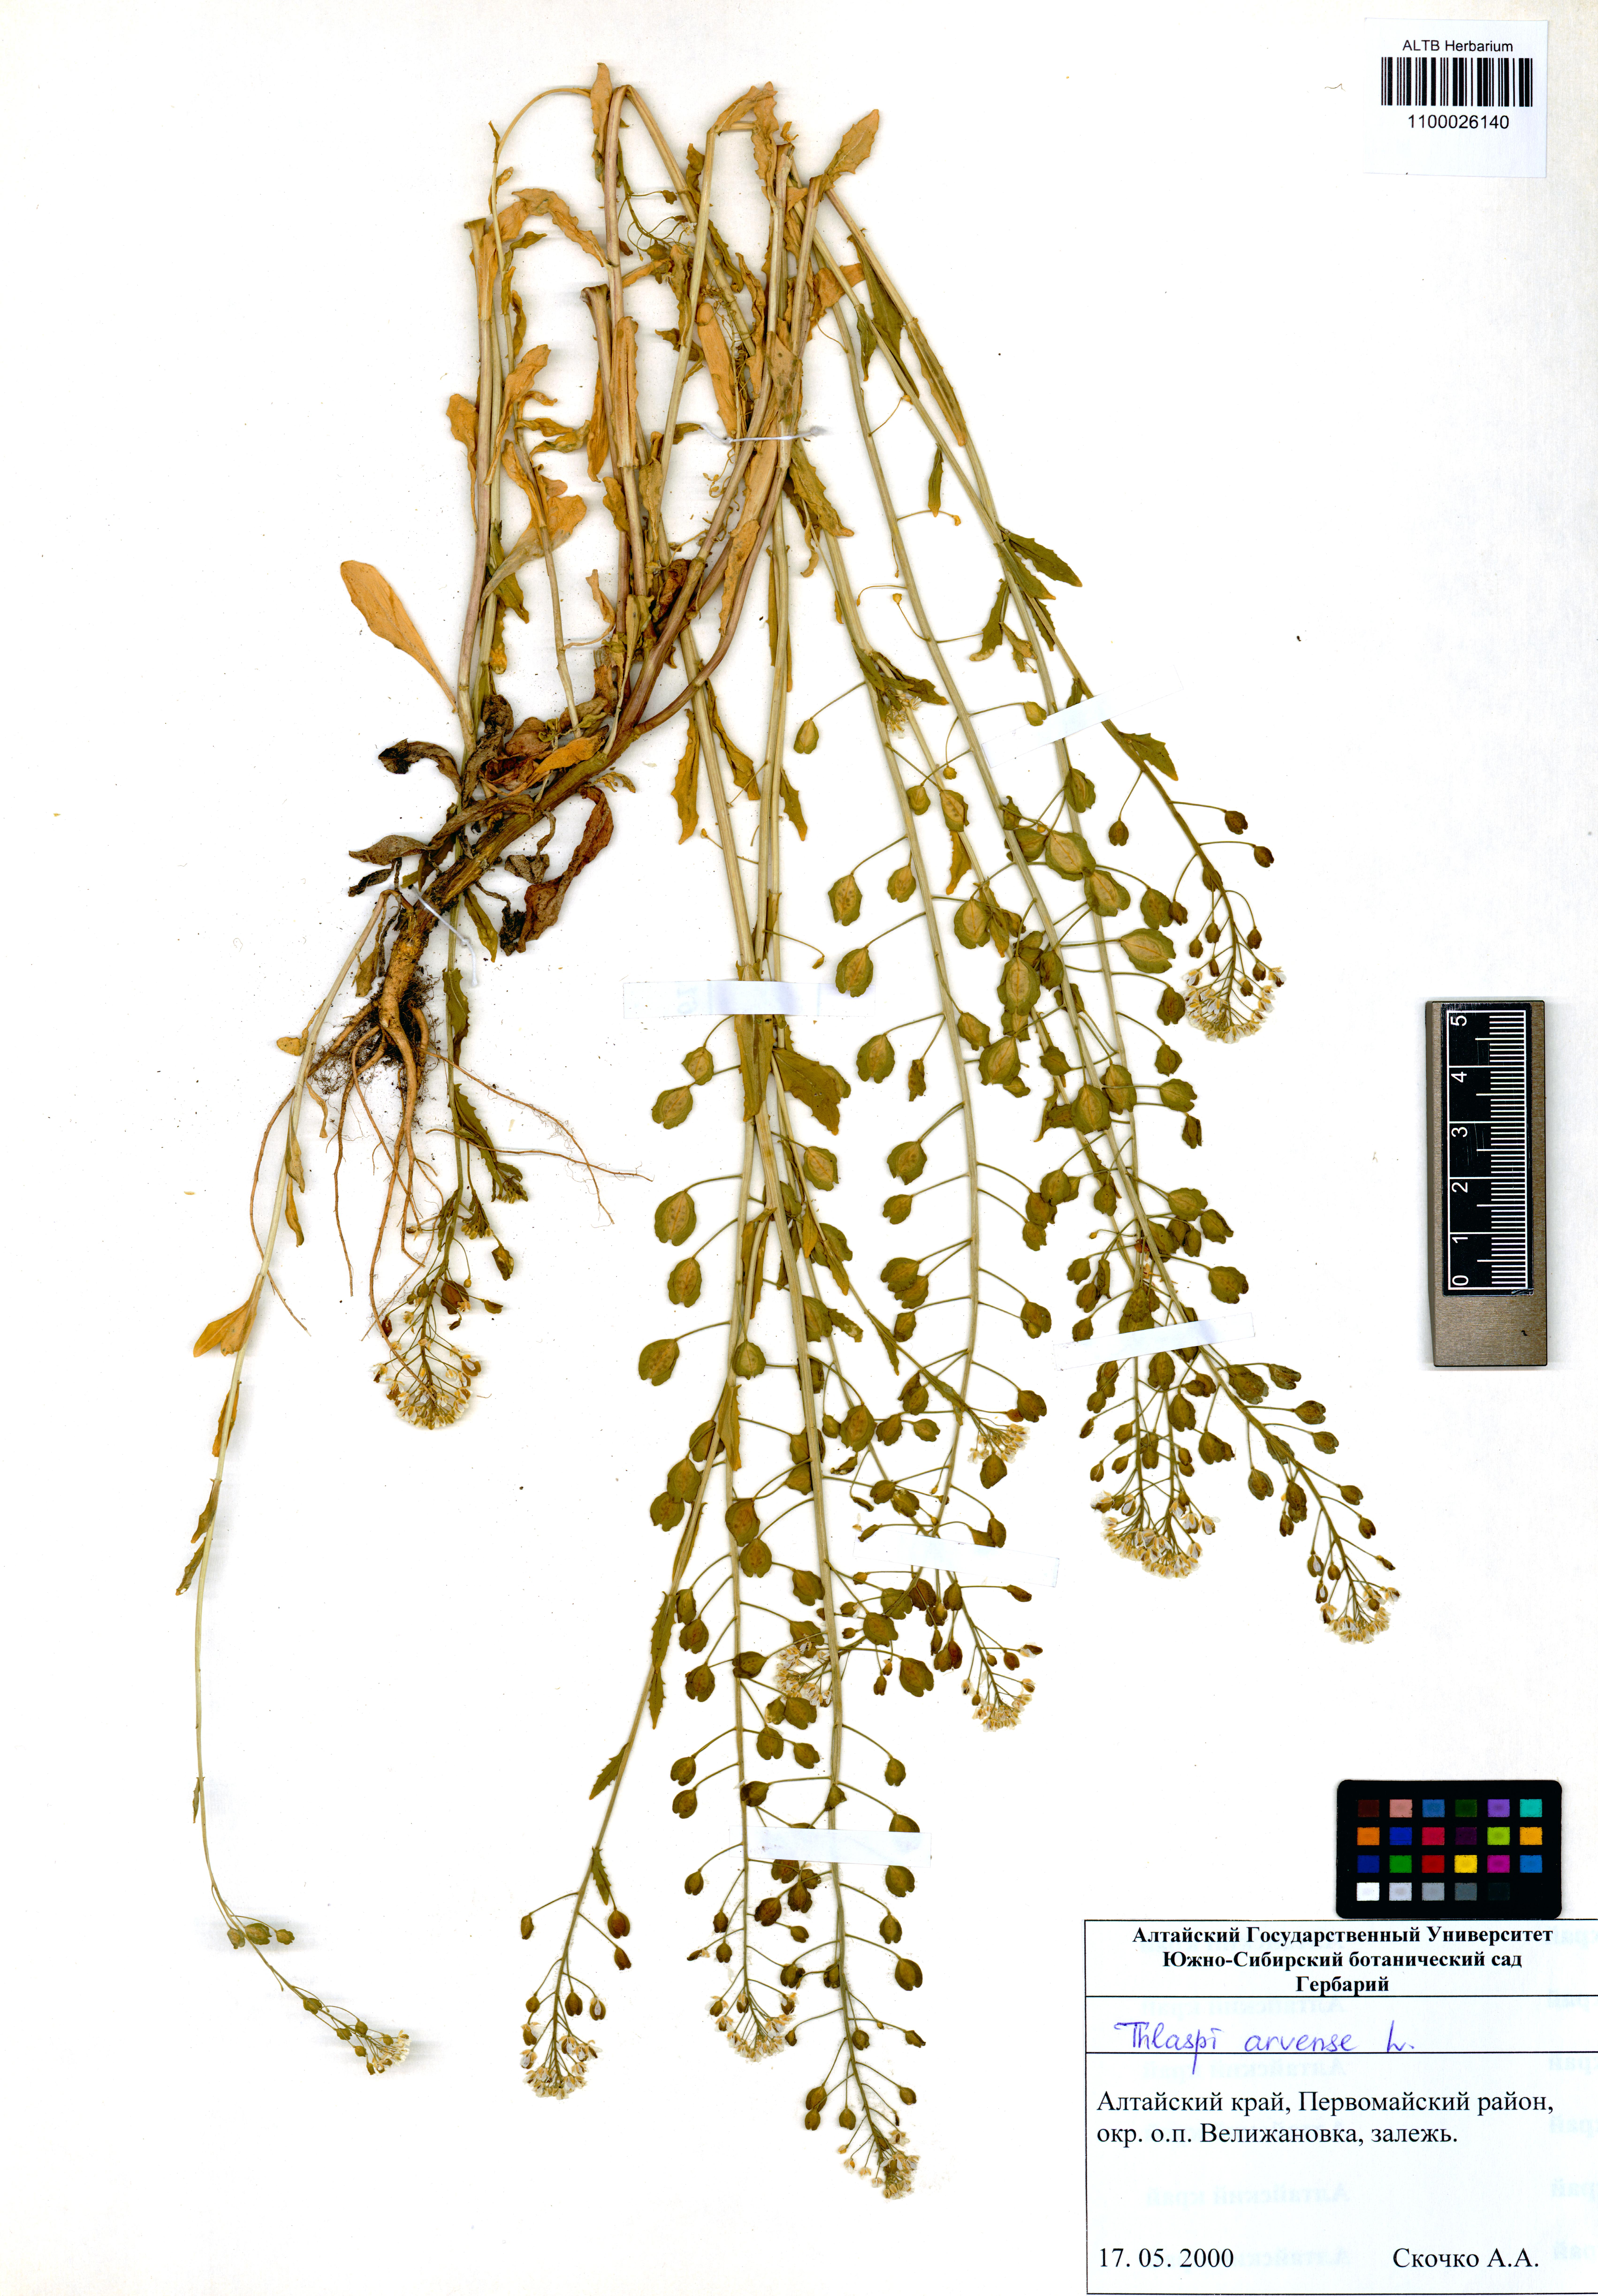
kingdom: Plantae
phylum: Tracheophyta
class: Magnoliopsida
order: Brassicales
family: Brassicaceae
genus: Thlaspi
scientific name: Thlaspi arvense
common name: Field pennycress
